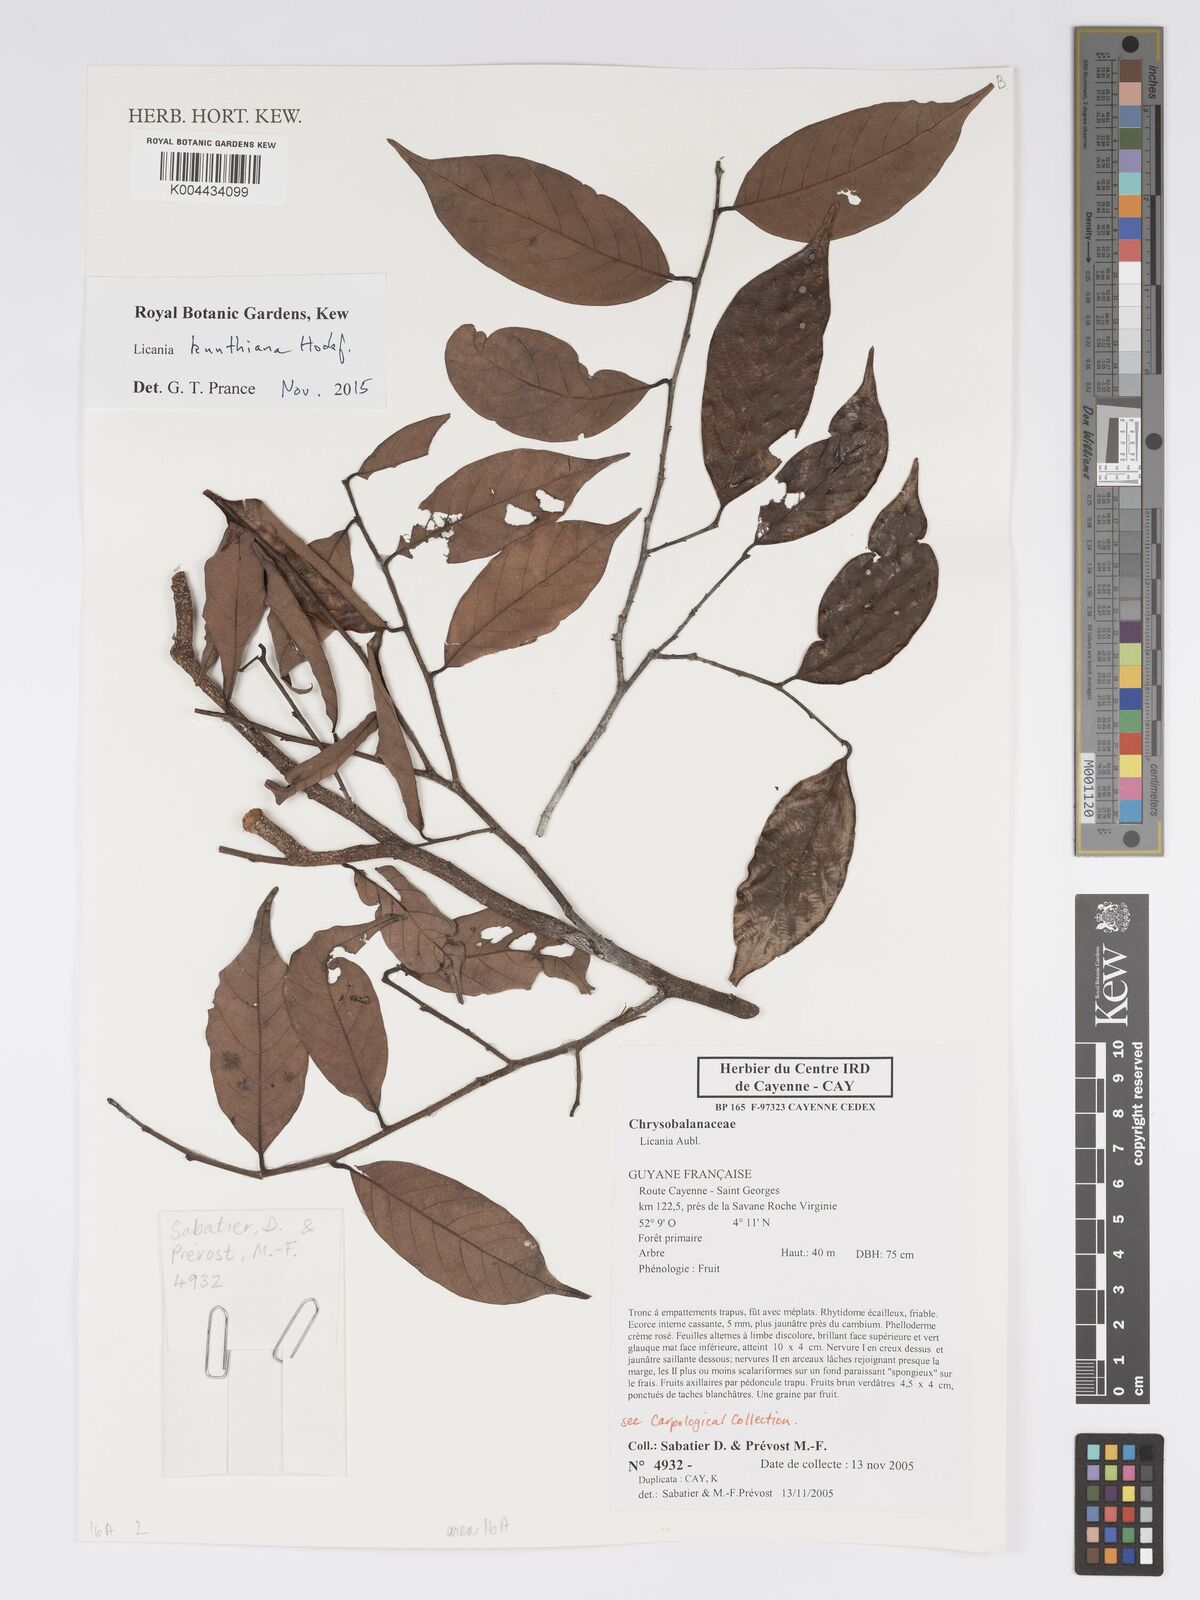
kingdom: Plantae
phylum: Tracheophyta
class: Magnoliopsida
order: Malpighiales
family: Chrysobalanaceae
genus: Licania
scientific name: Licania kunthiana
